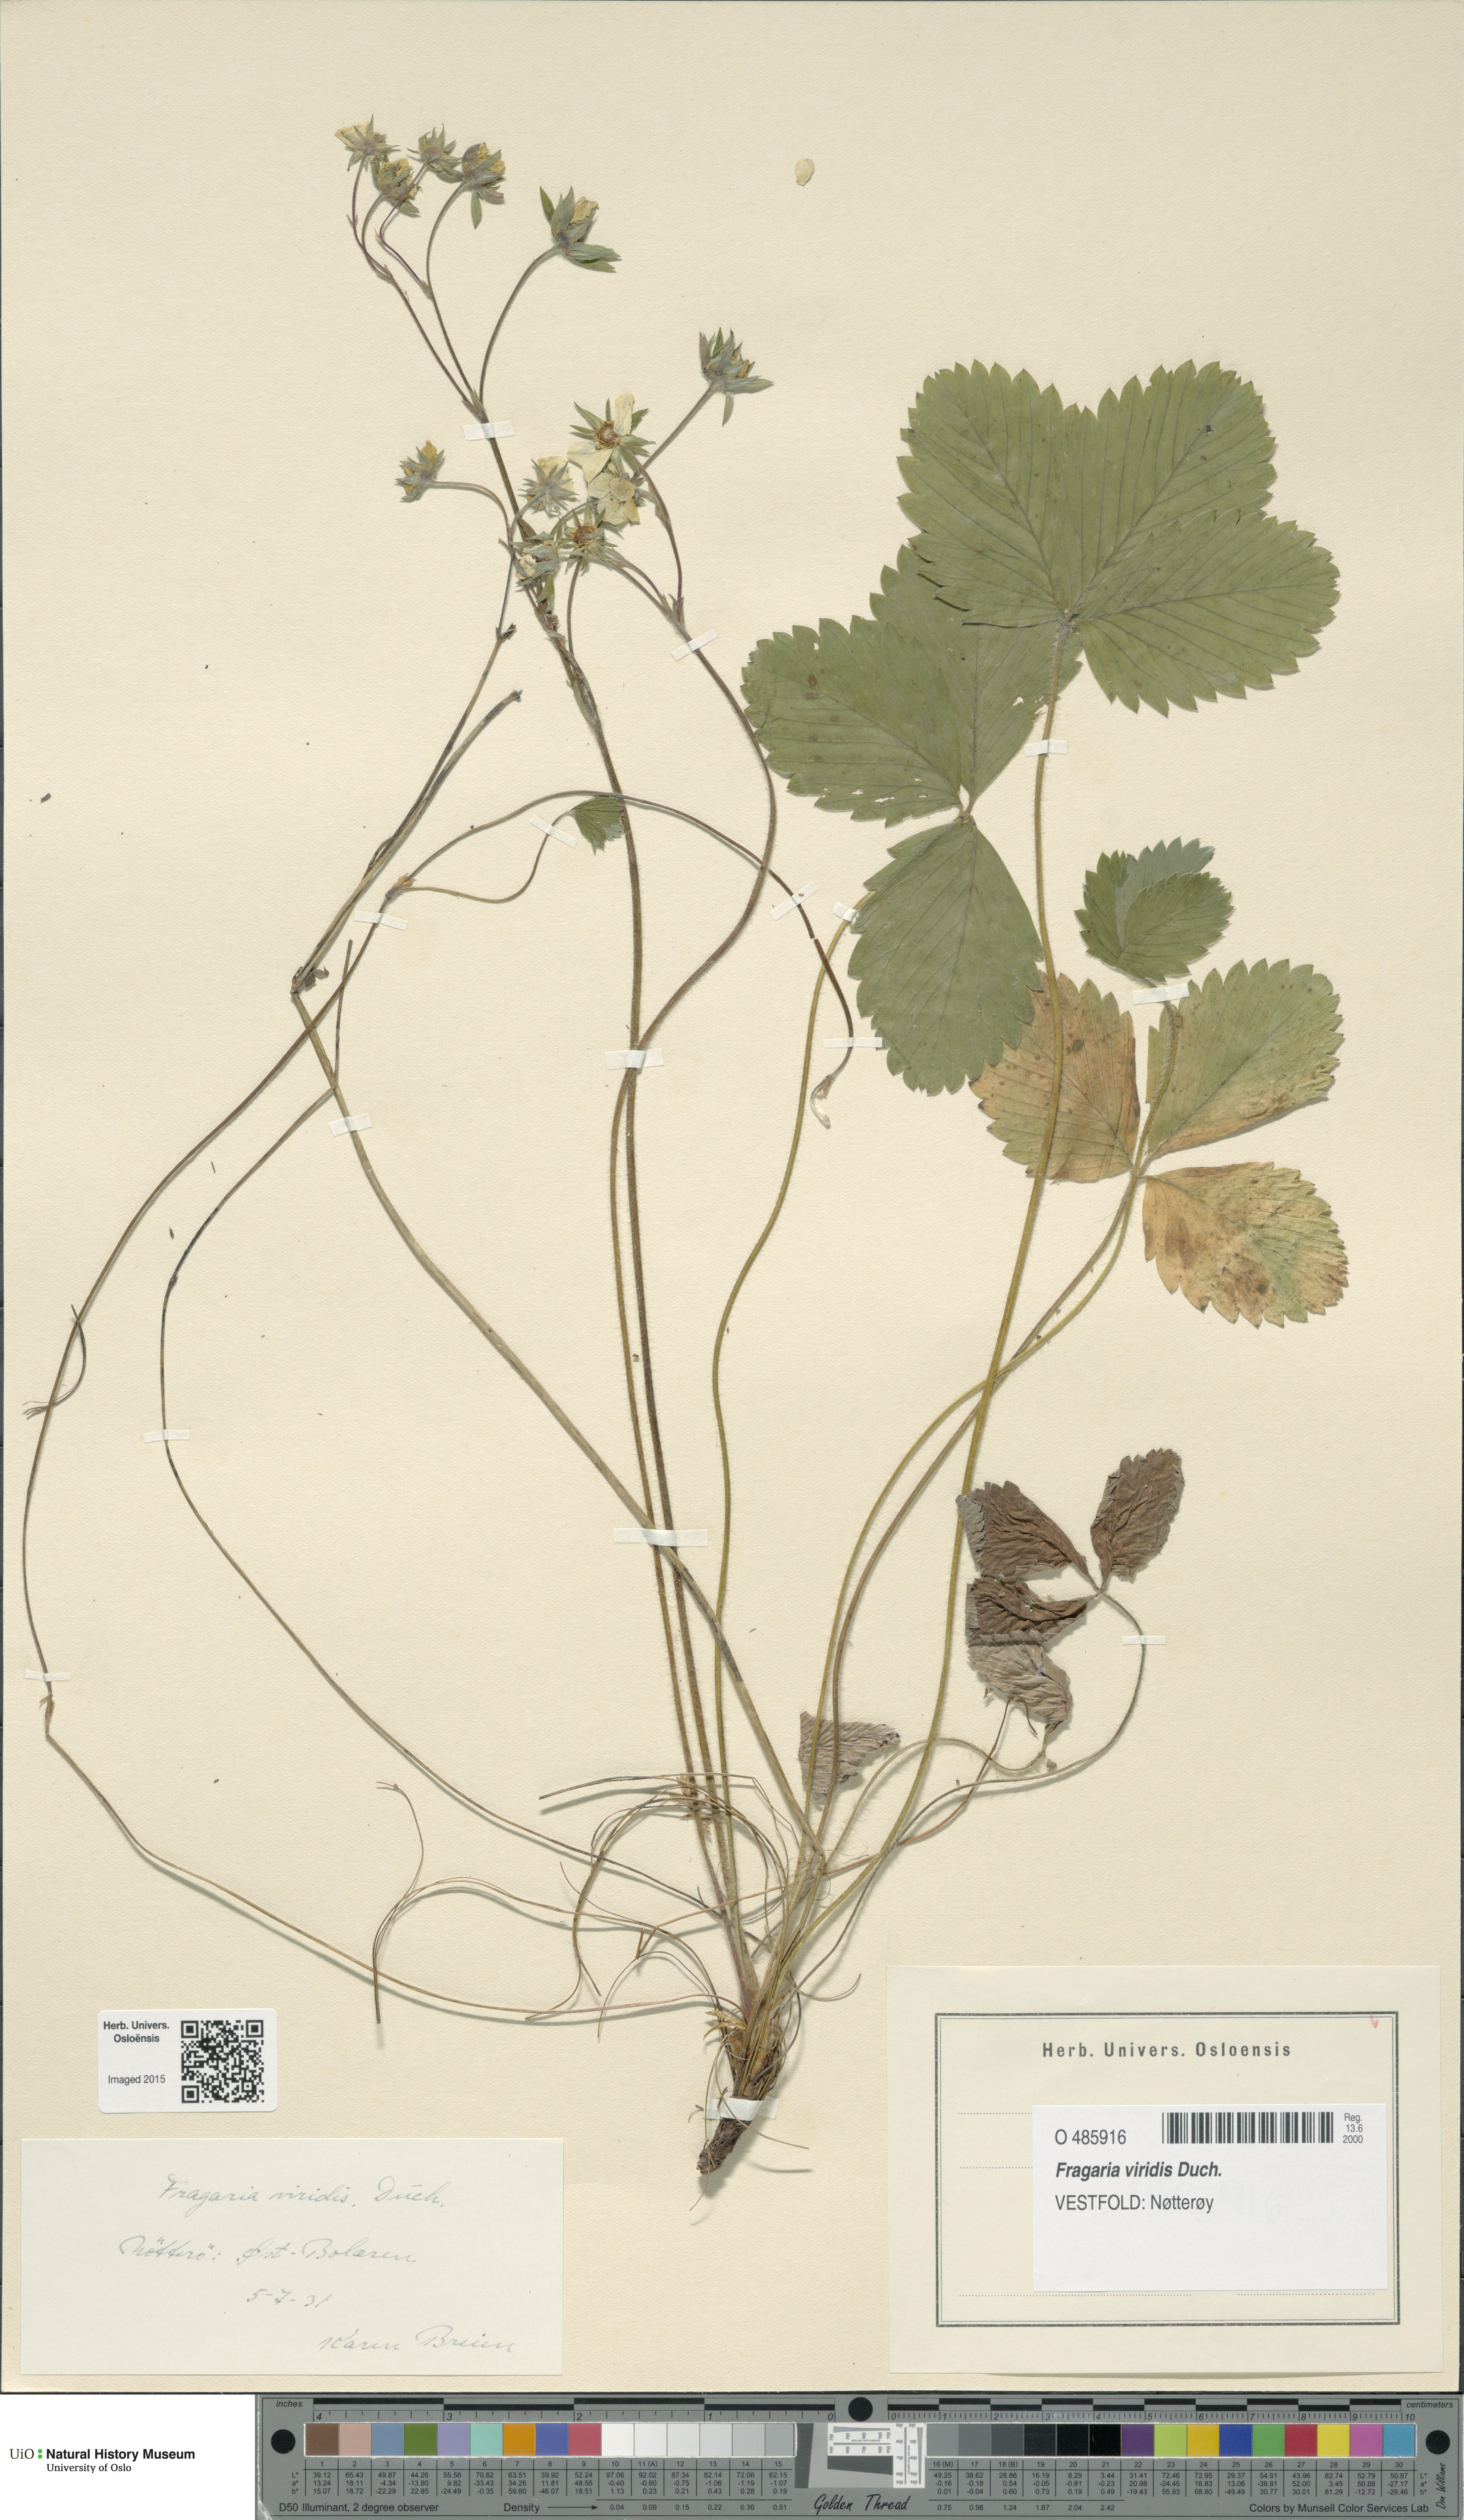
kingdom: Plantae
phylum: Tracheophyta
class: Magnoliopsida
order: Rosales
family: Rosaceae
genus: Fragaria
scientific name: Fragaria viridis
